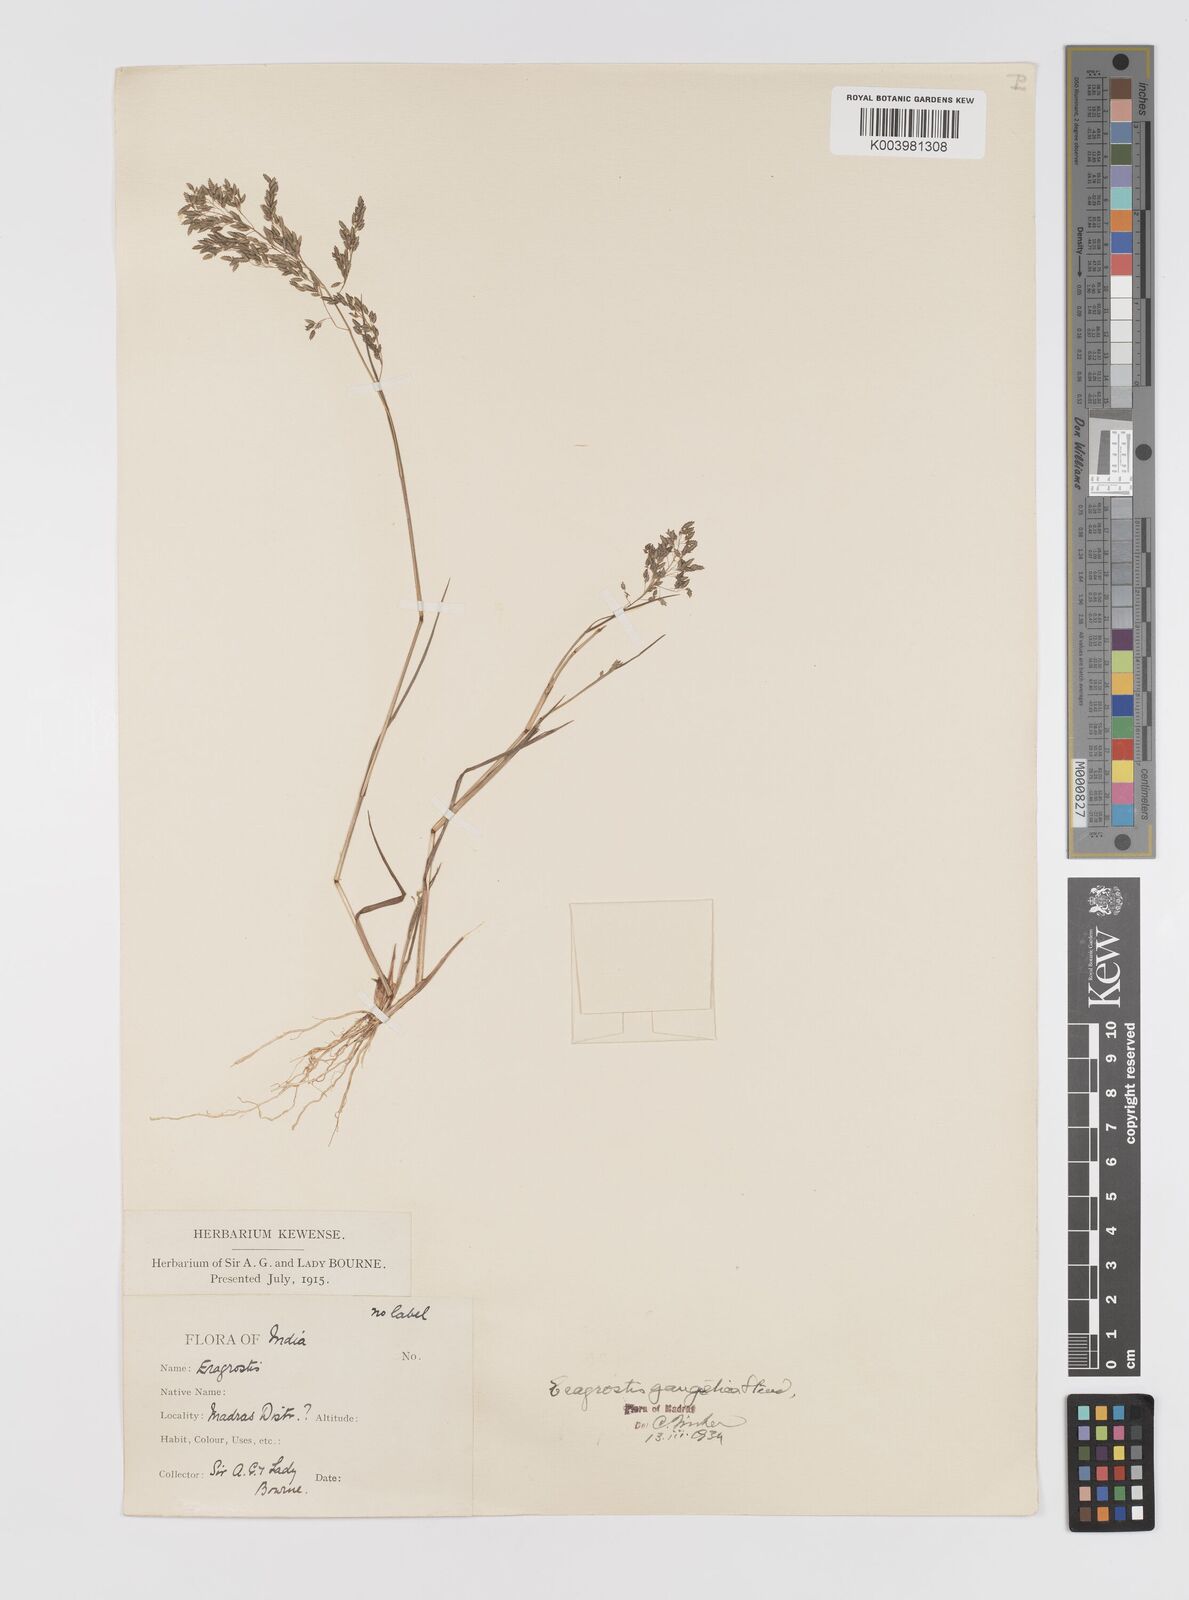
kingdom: Plantae
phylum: Tracheophyta
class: Liliopsida
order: Poales
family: Poaceae
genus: Eragrostis
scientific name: Eragrostis
